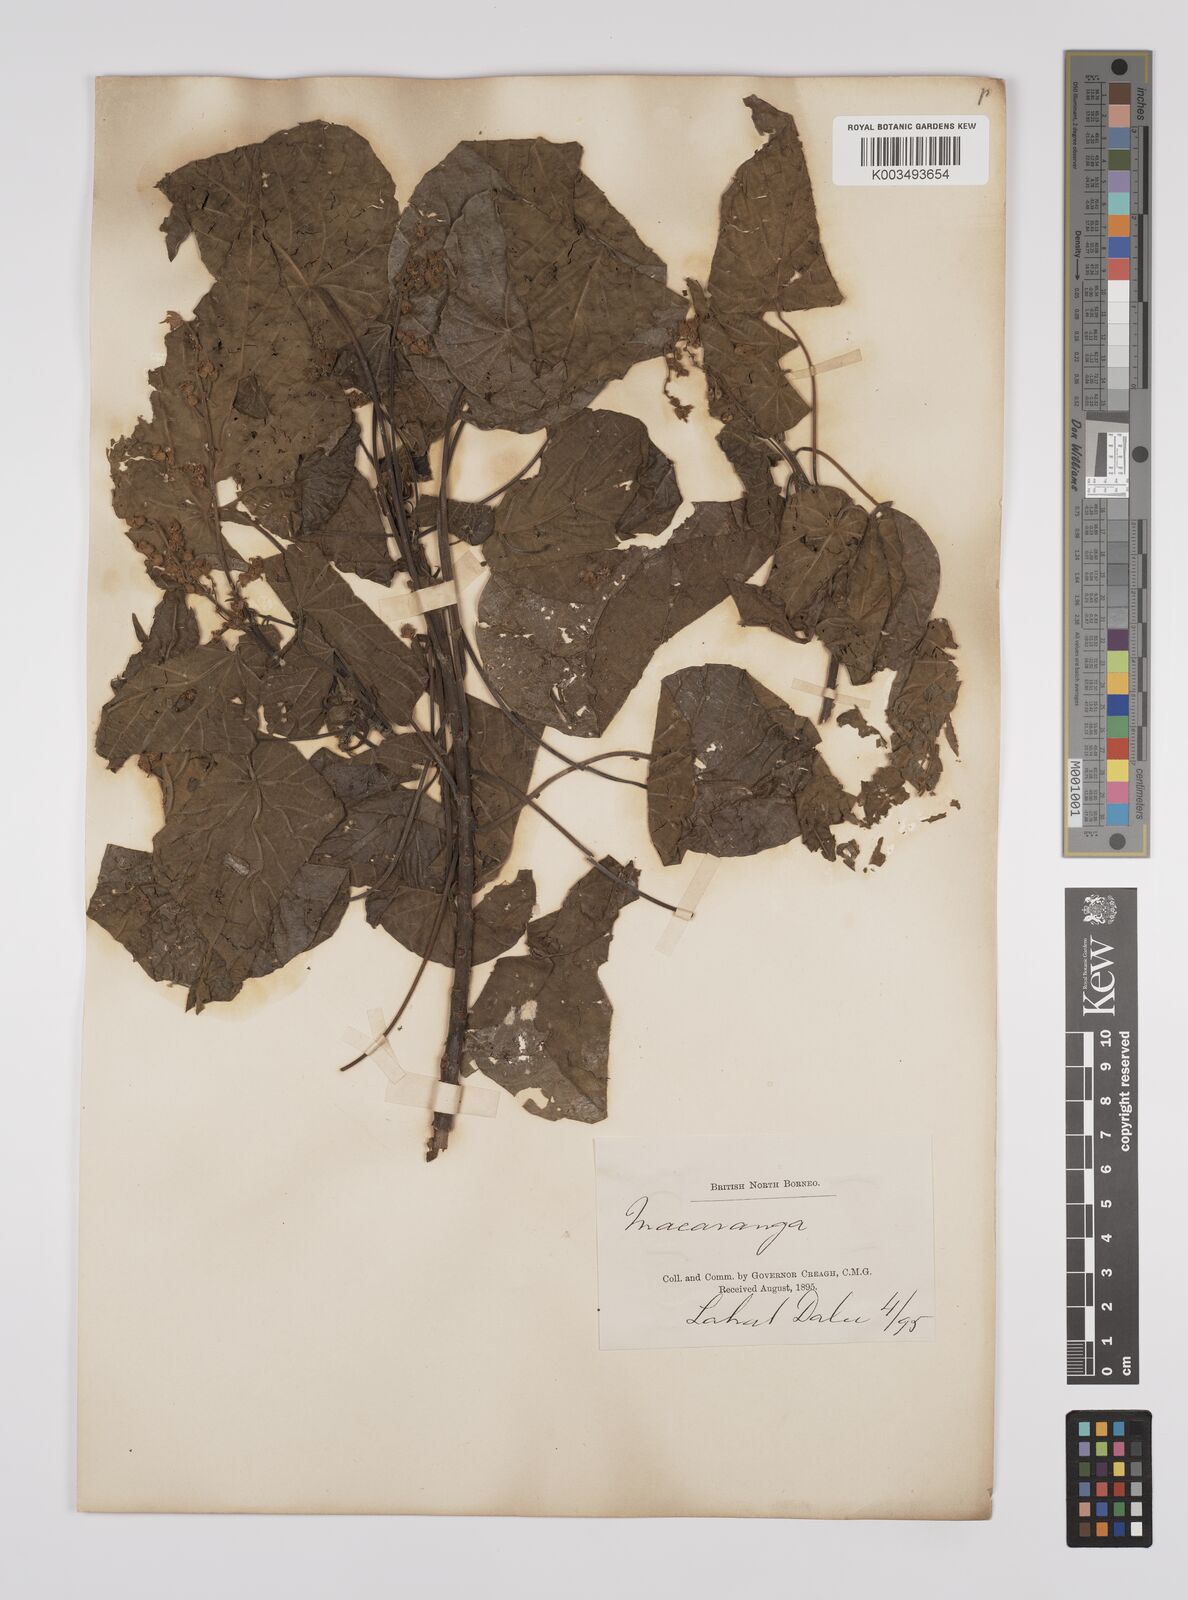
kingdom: Plantae
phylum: Tracheophyta
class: Magnoliopsida
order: Malpighiales
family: Euphorbiaceae
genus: Macaranga
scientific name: Macaranga tanarius
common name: Parasol leaf tree
